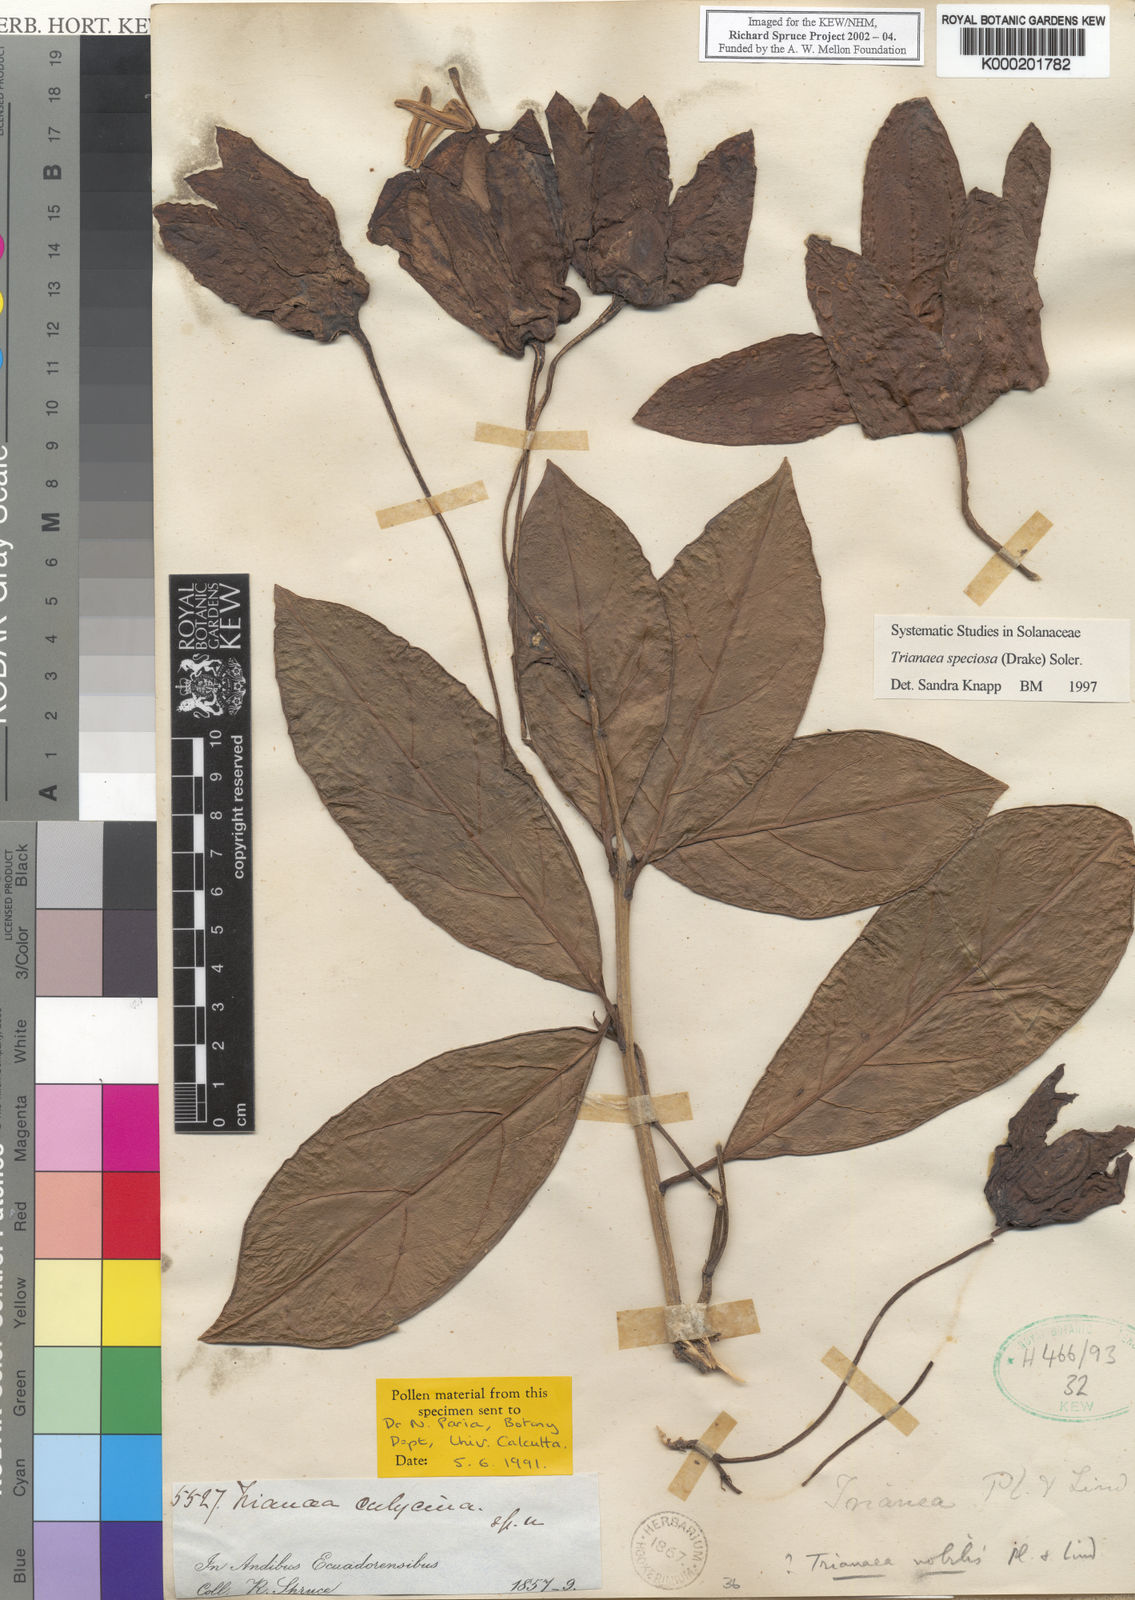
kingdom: Plantae
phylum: Tracheophyta
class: Magnoliopsida
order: Solanales
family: Solanaceae
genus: Poortmannia
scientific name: Poortmannia speciosa
